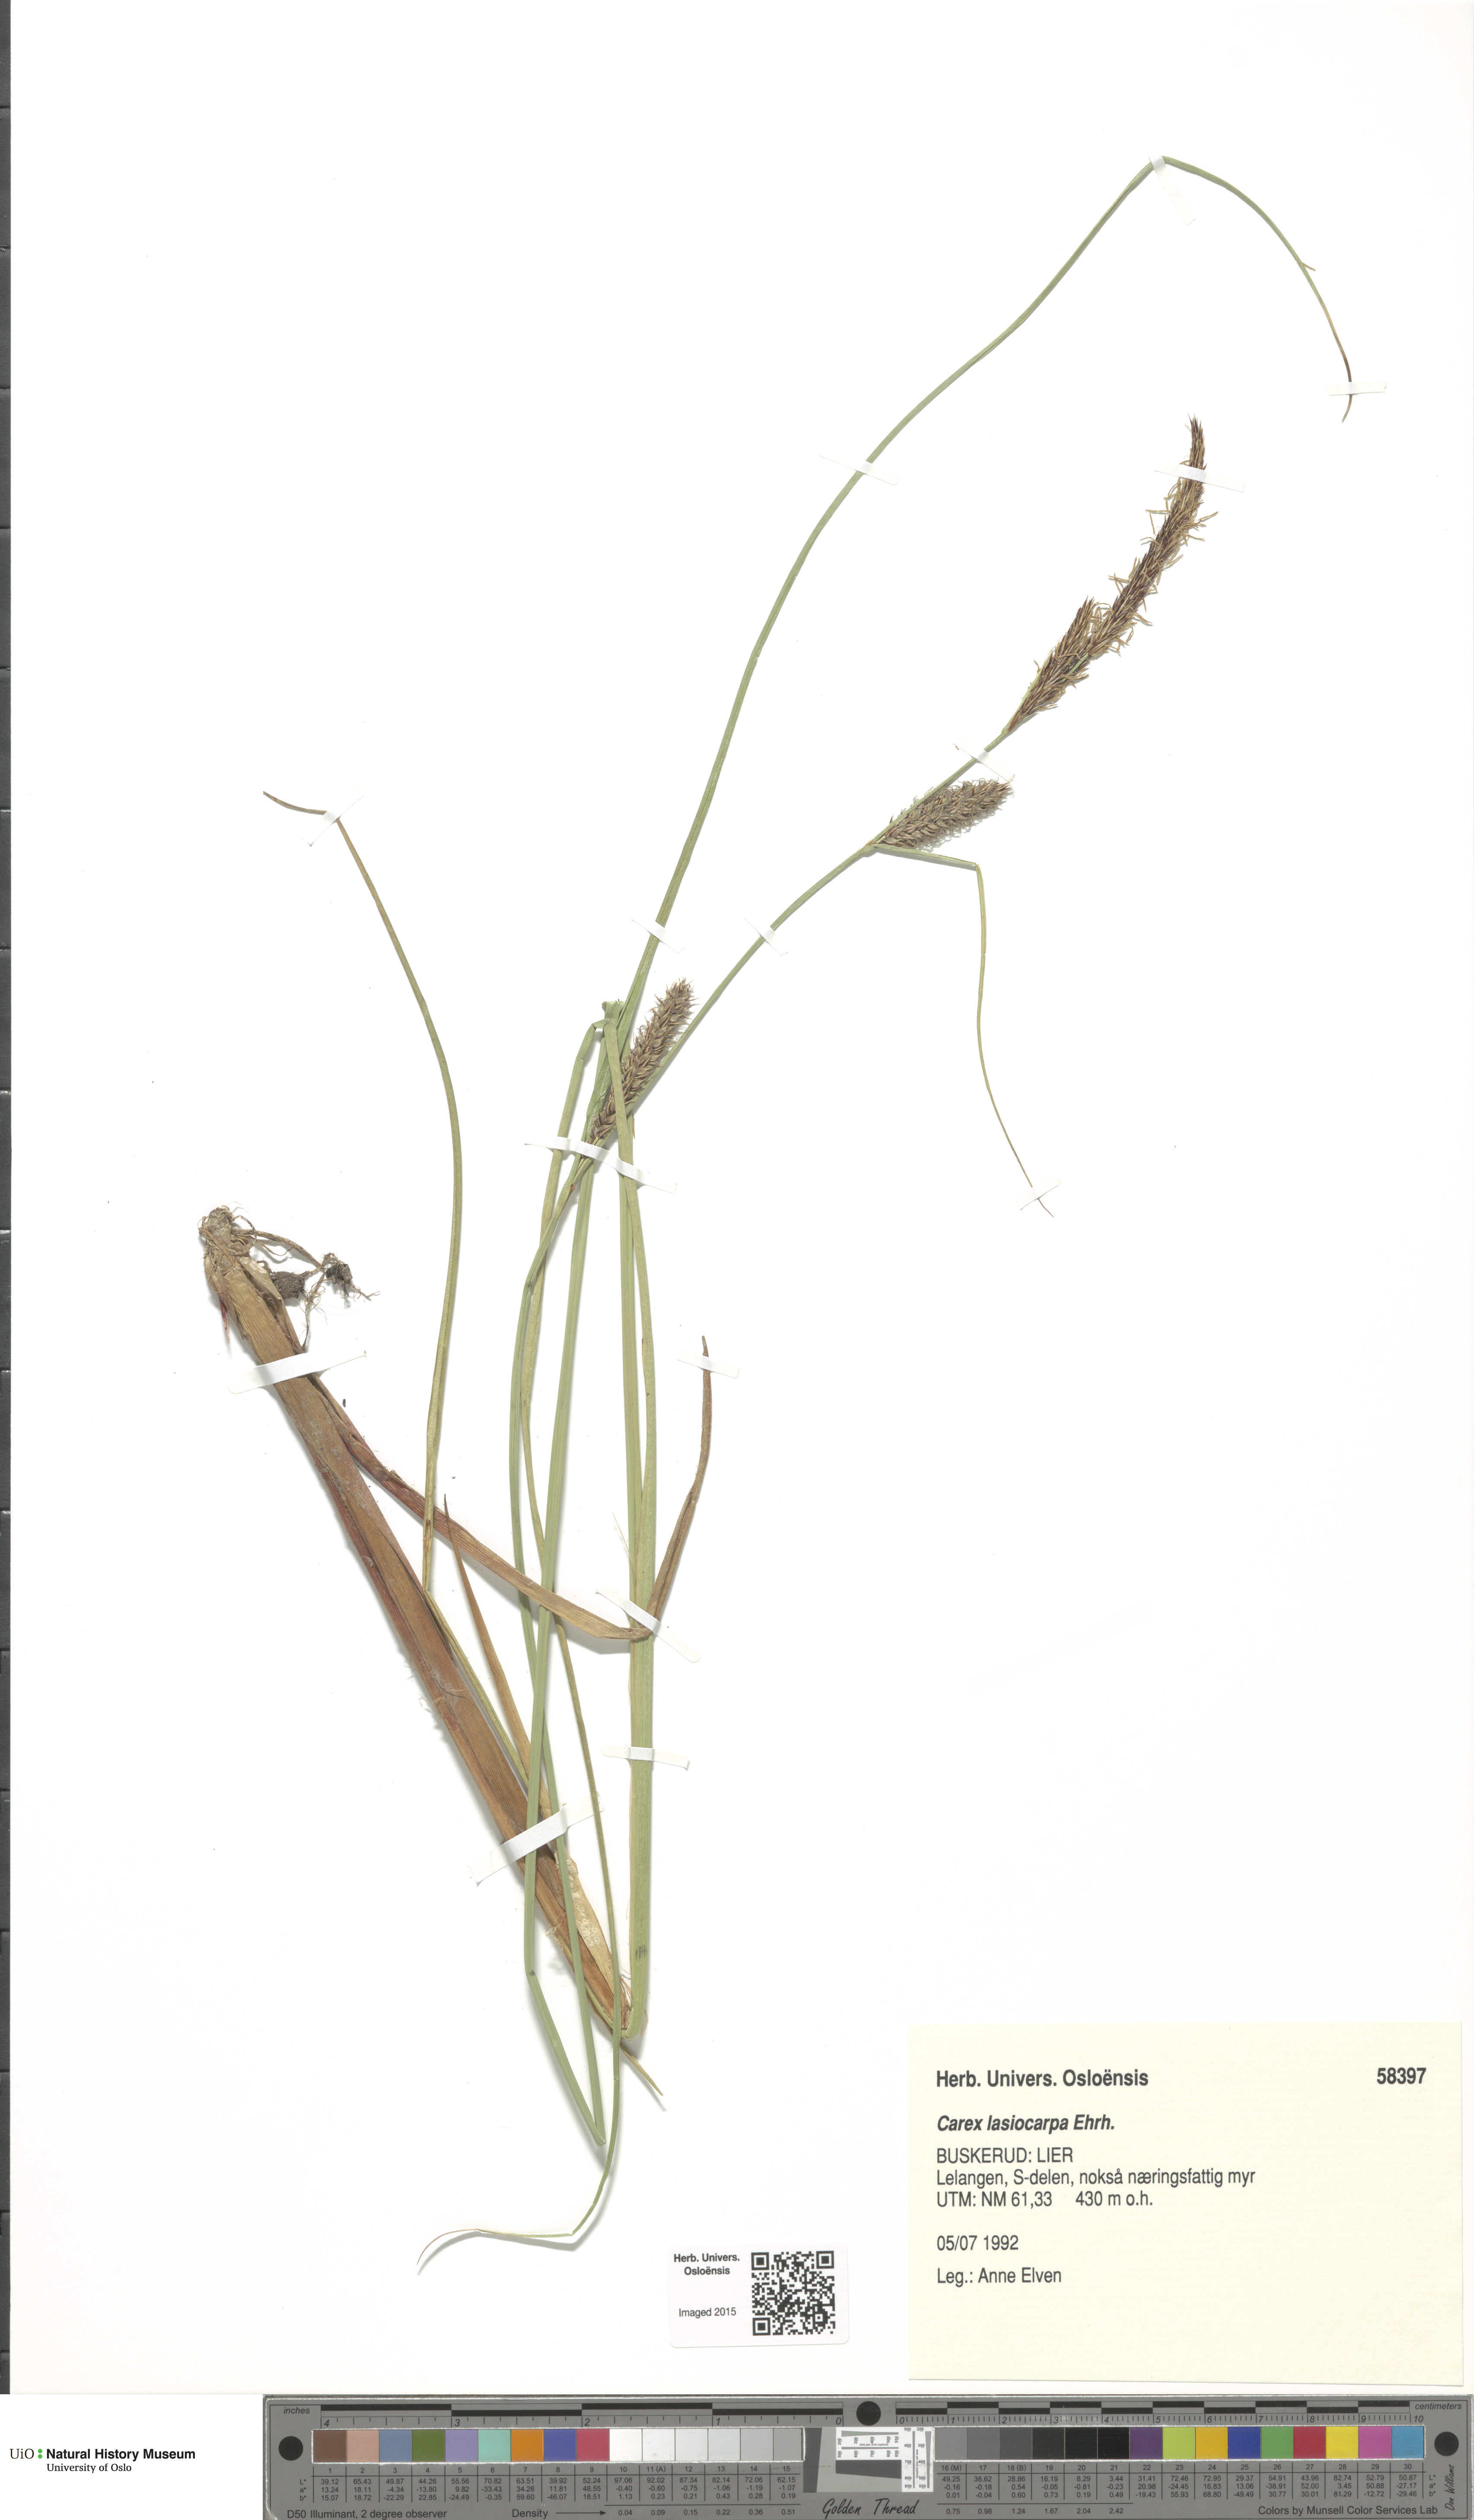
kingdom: Plantae
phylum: Tracheophyta
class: Liliopsida
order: Poales
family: Cyperaceae
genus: Carex
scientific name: Carex lasiocarpa
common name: Slender sedge
